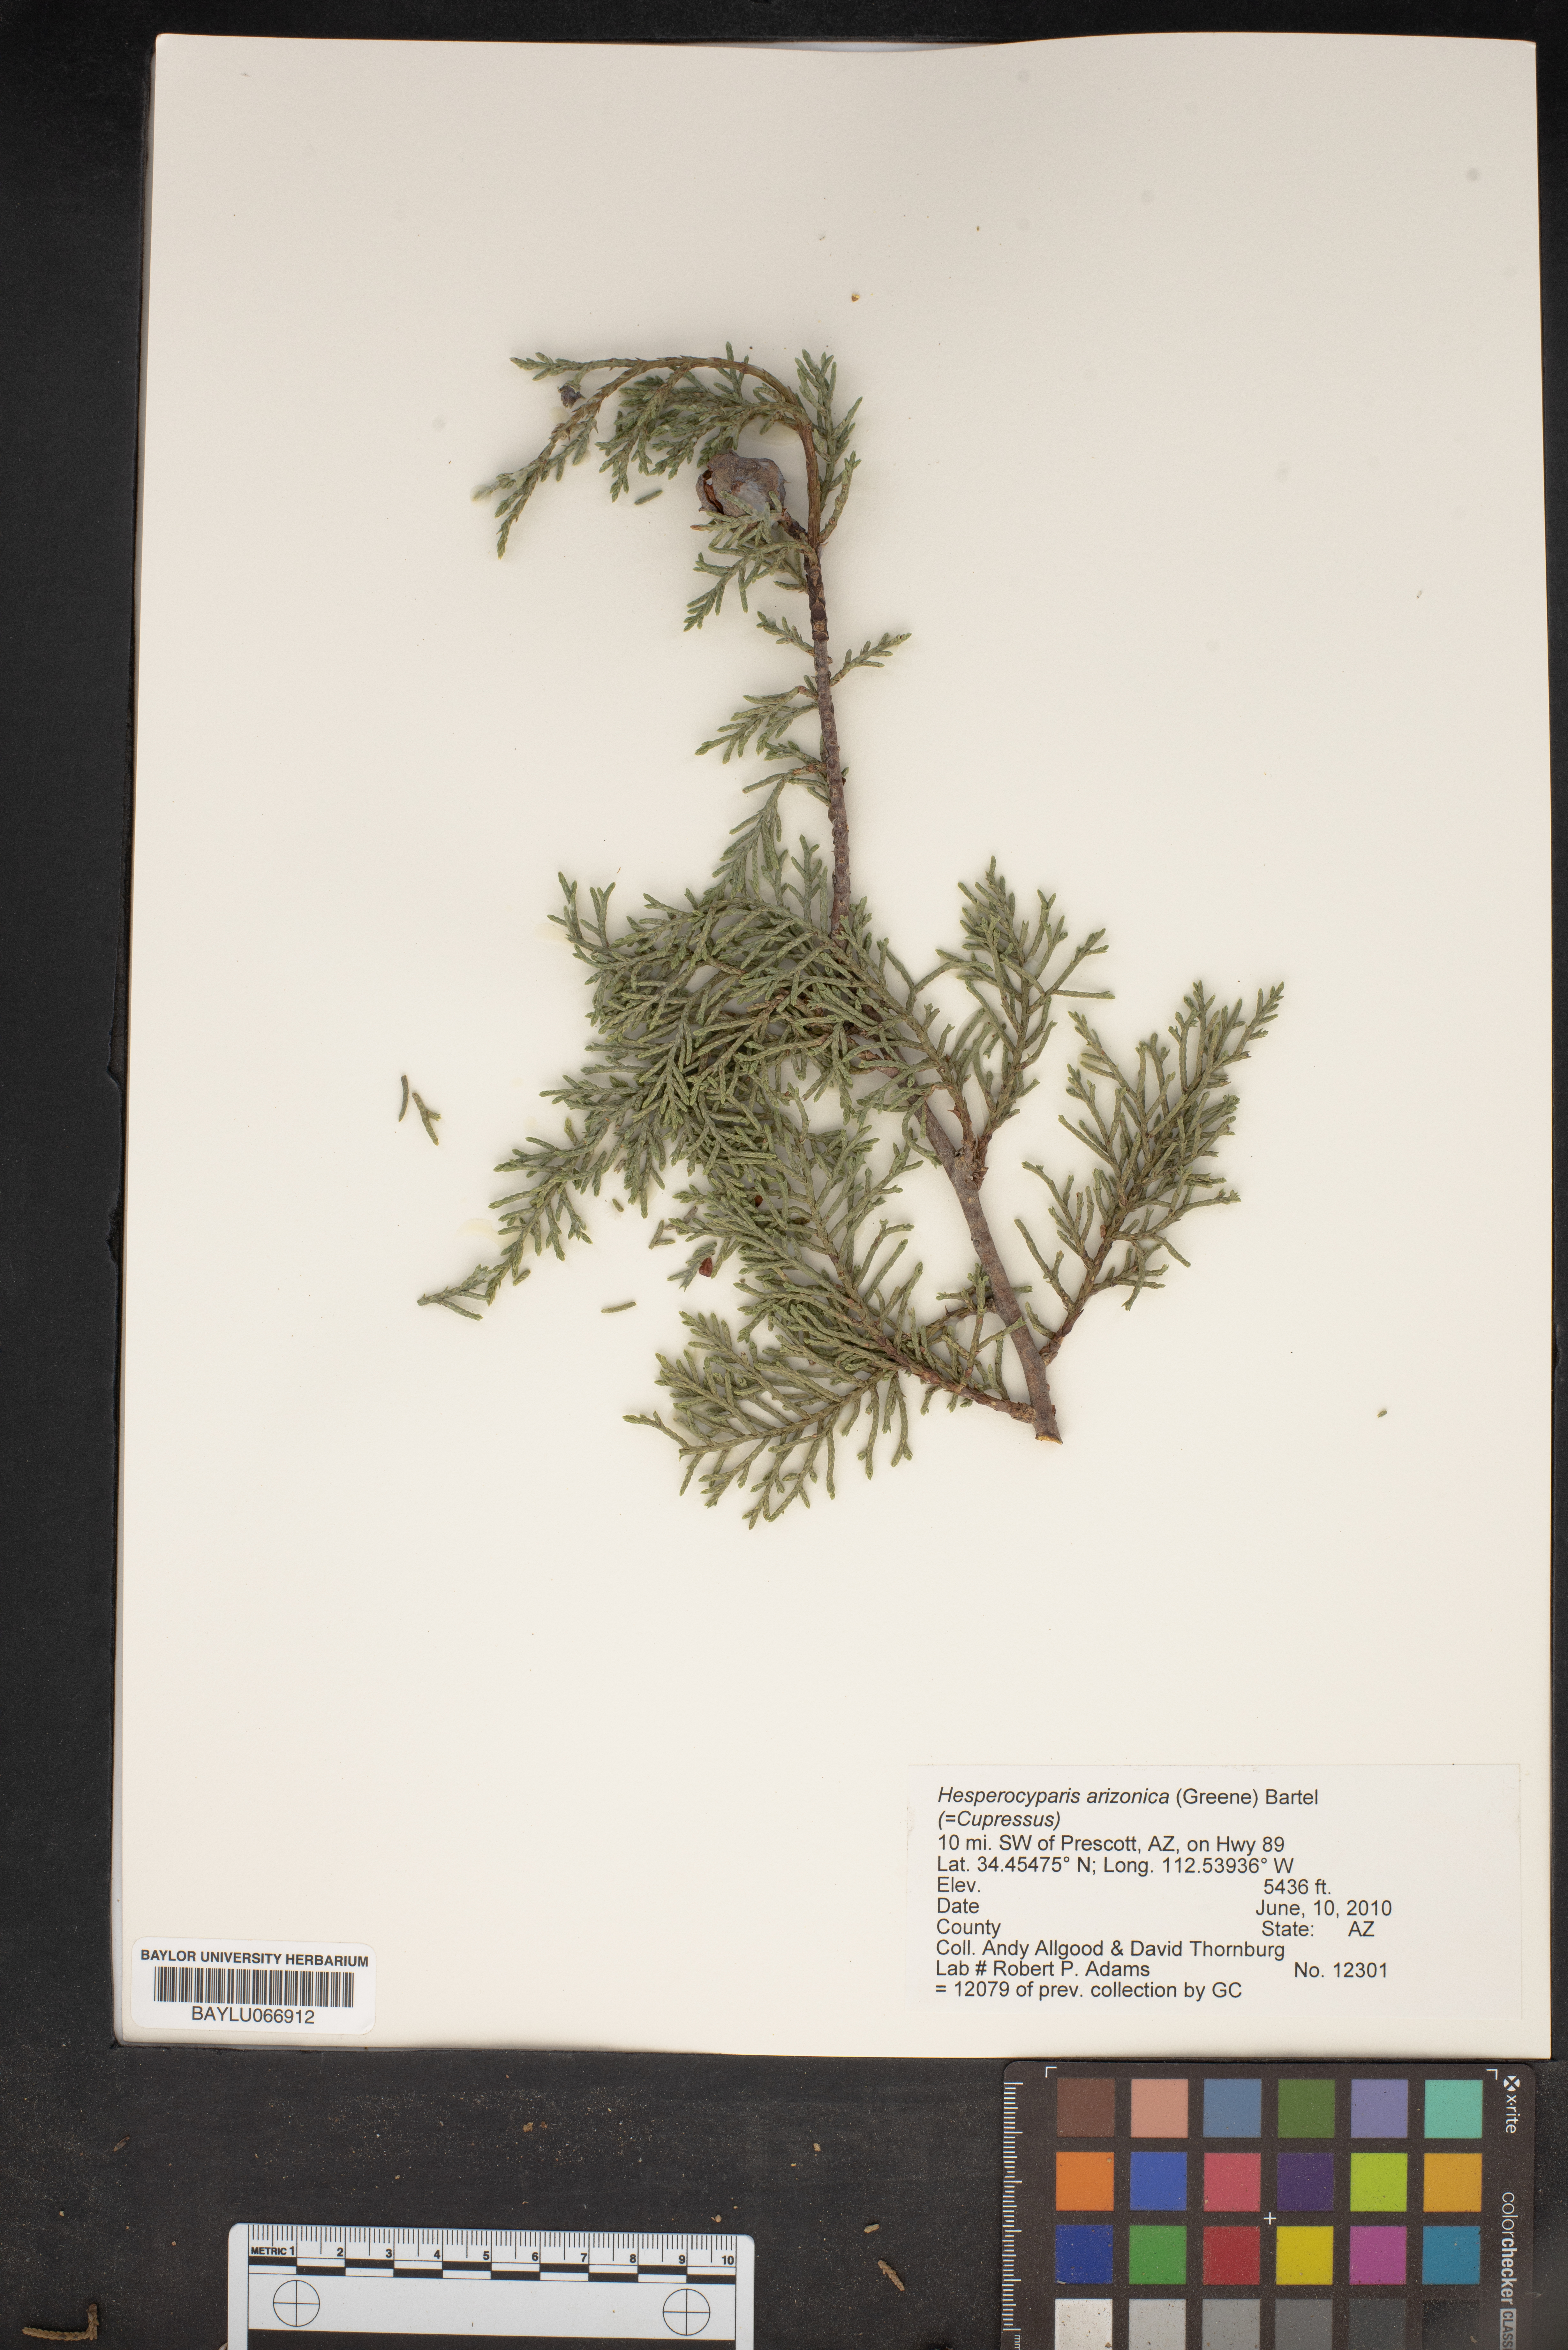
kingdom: Plantae
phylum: Tracheophyta
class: Pinopsida
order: Pinales
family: Cupressaceae
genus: Cupressus
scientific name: Cupressus arizonica
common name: Arizona cypress
